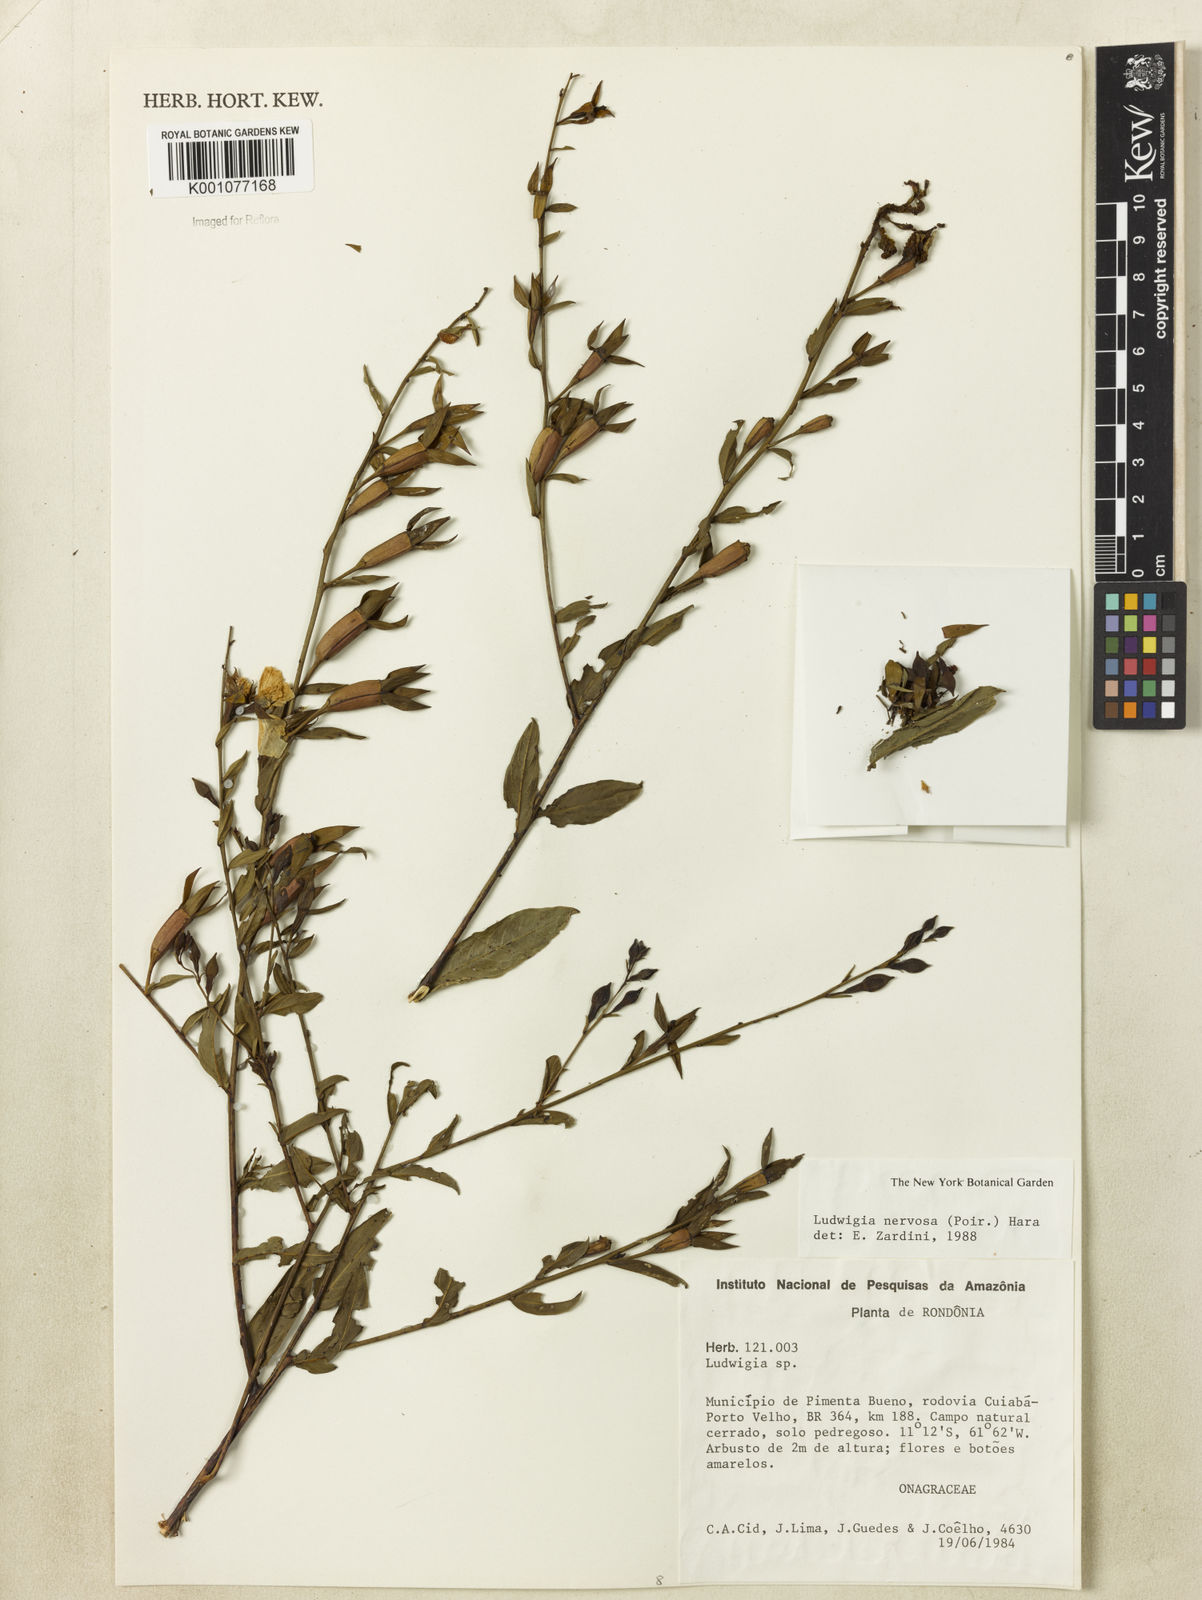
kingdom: Plantae
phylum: Tracheophyta
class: Magnoliopsida
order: Myrtales
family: Onagraceae
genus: Ludwigia
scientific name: Ludwigia nervosa
